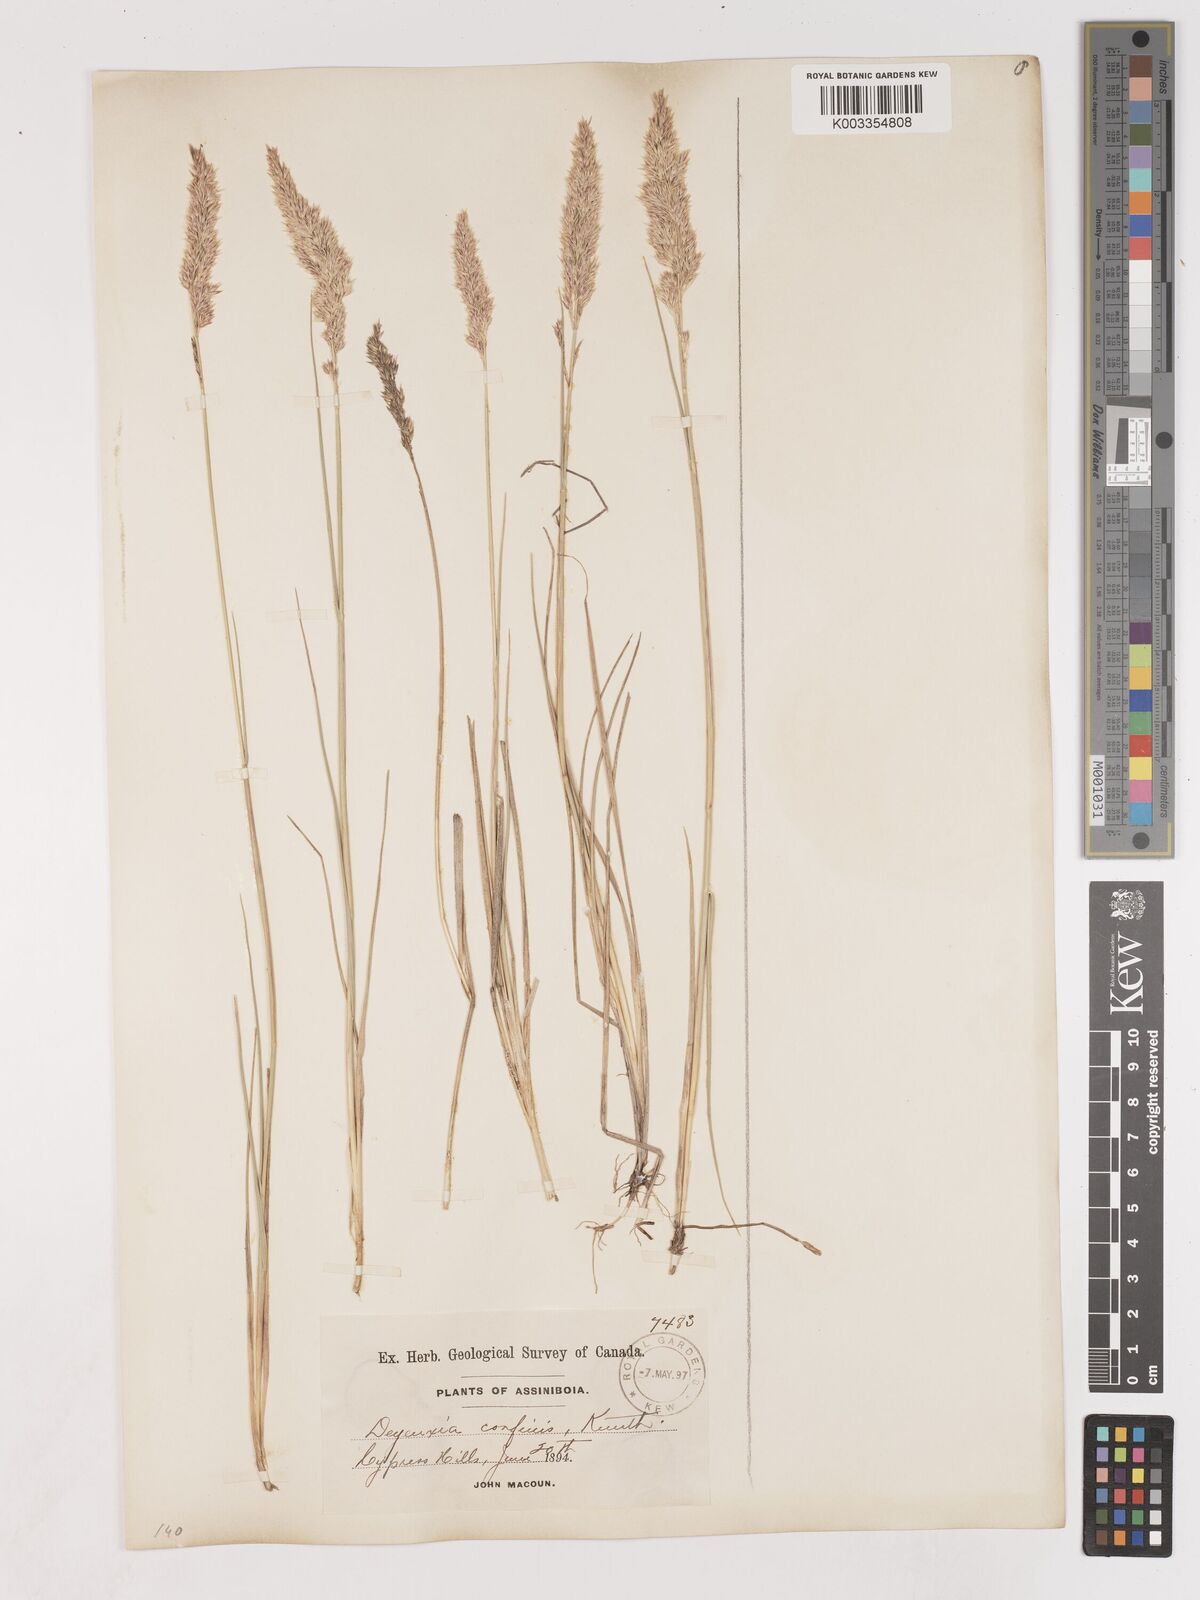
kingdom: Plantae
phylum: Tracheophyta
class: Liliopsida
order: Poales
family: Poaceae
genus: Calamagrostis
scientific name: Calamagrostis
